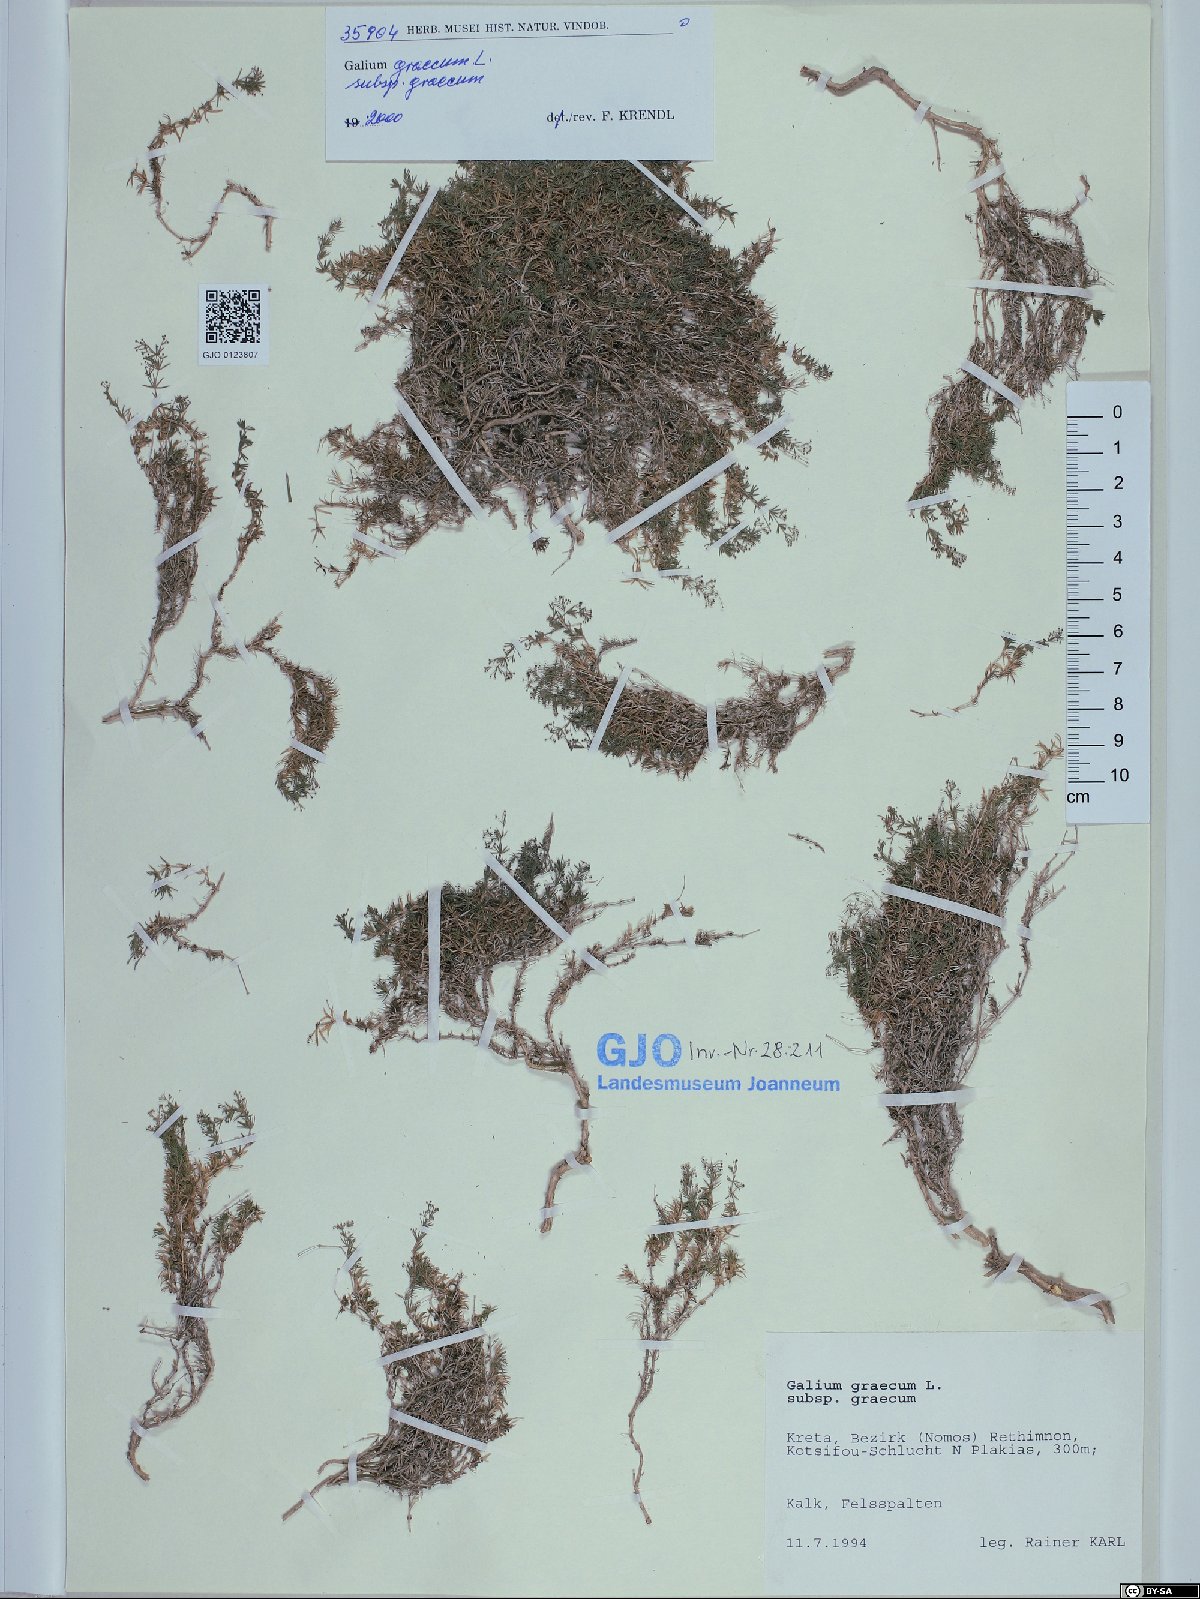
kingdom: Plantae
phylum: Tracheophyta
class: Magnoliopsida
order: Gentianales
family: Rubiaceae
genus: Galium
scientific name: Galium graecum
